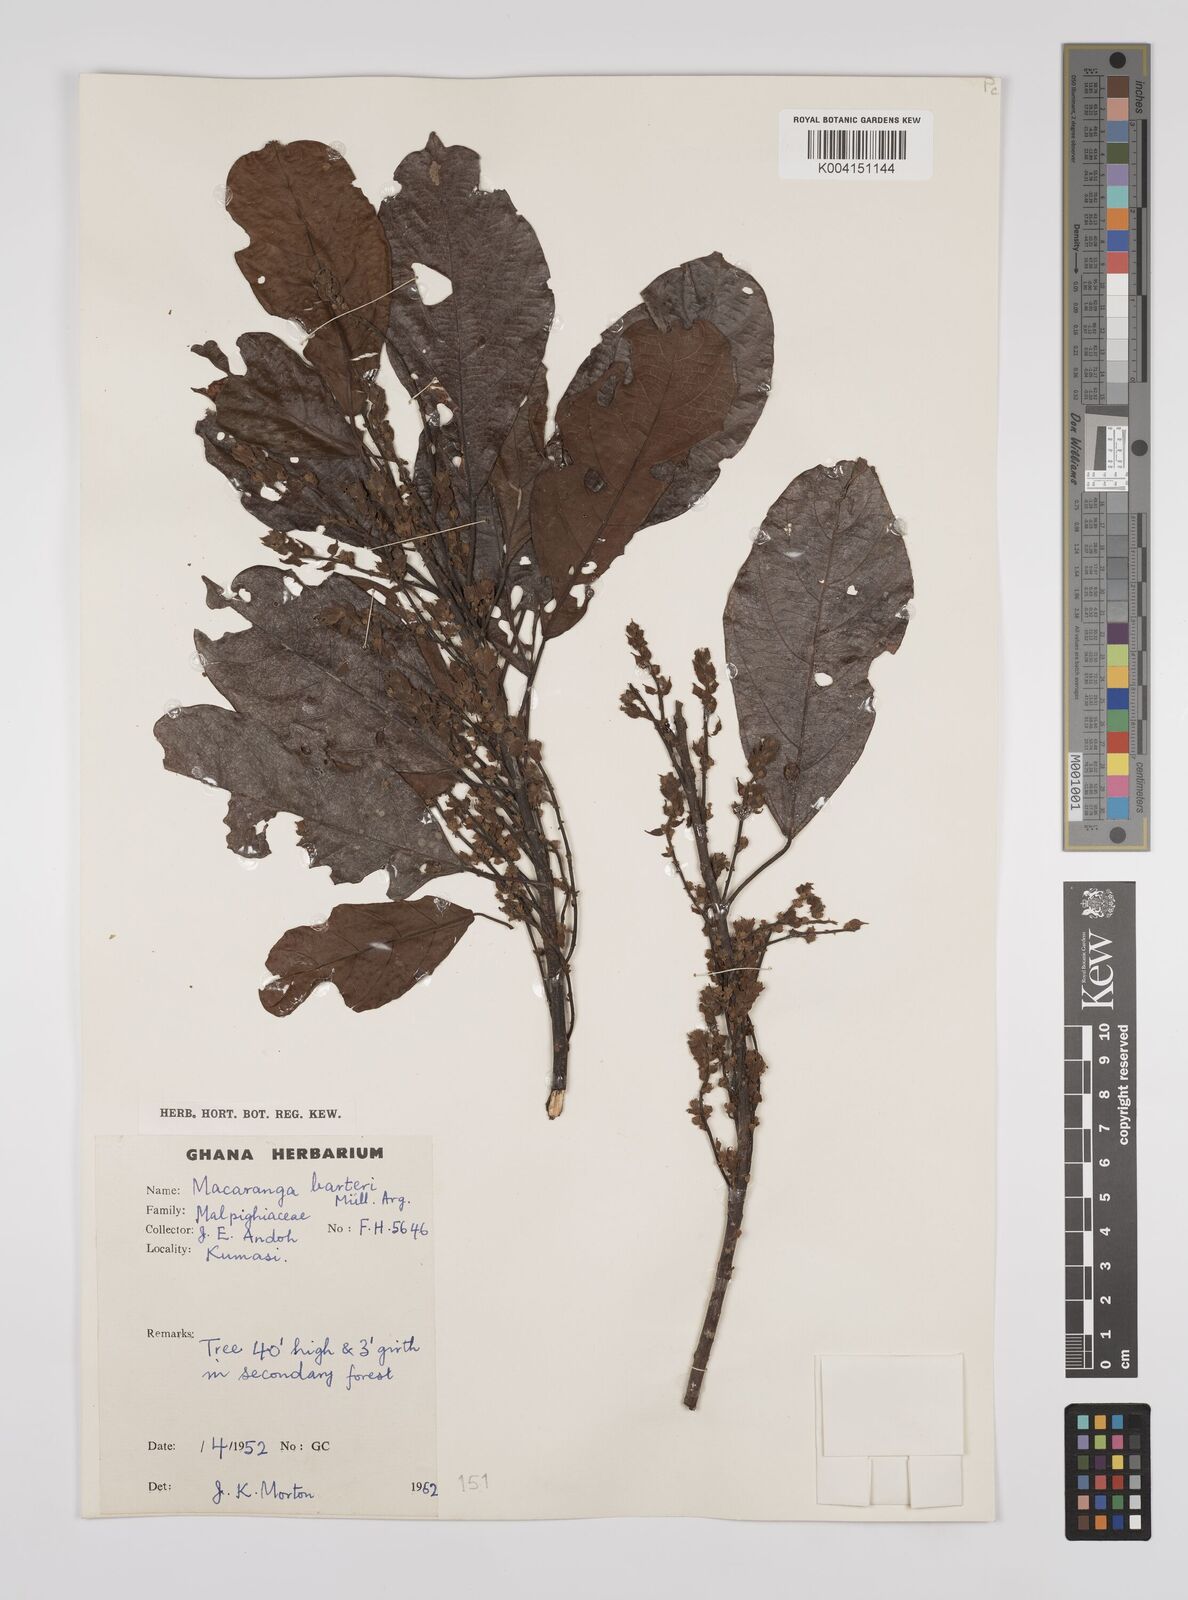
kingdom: Plantae
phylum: Tracheophyta
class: Magnoliopsida
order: Malpighiales
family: Euphorbiaceae
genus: Macaranga
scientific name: Macaranga barteri
